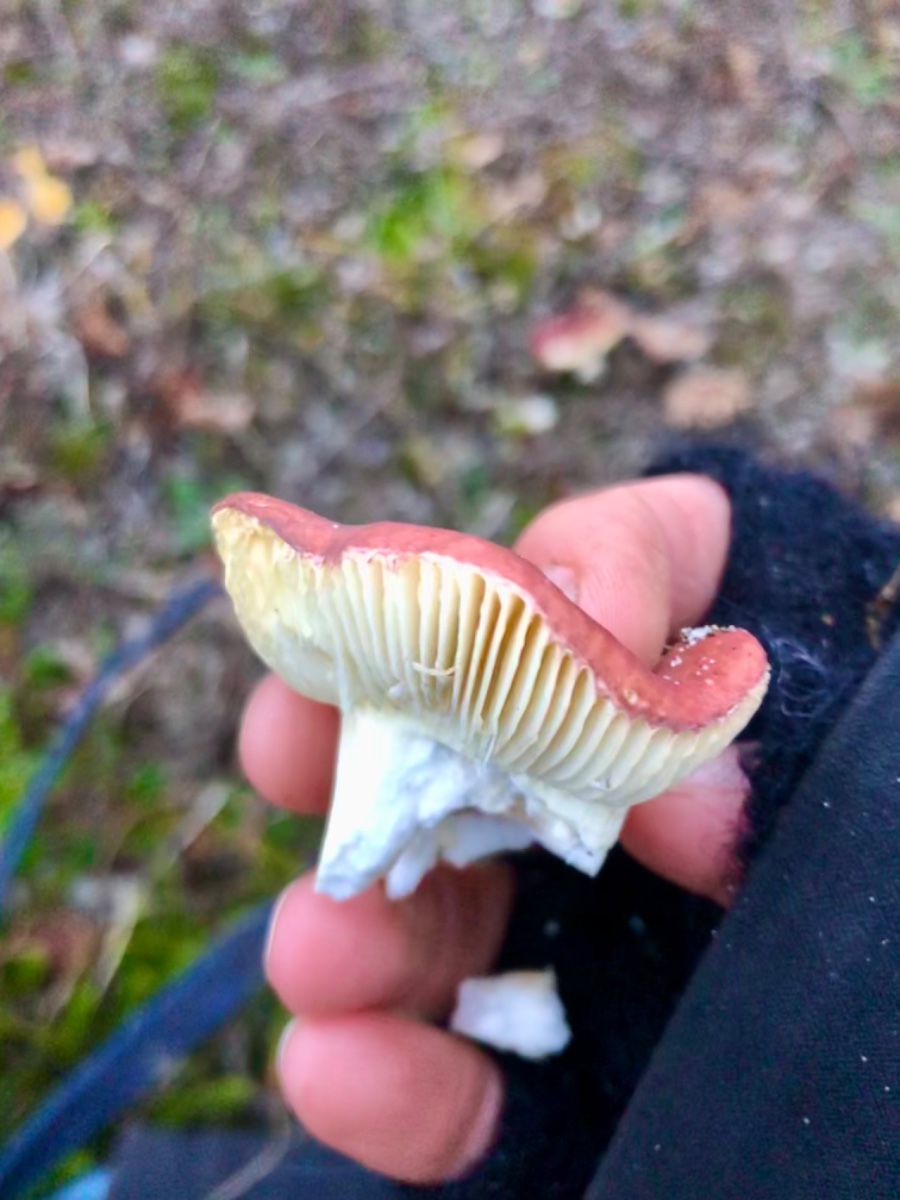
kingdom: Fungi
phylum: Basidiomycota
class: Agaricomycetes
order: Russulales
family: Russulaceae
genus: Russula
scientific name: Russula subrubens
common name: pile-skørhat
